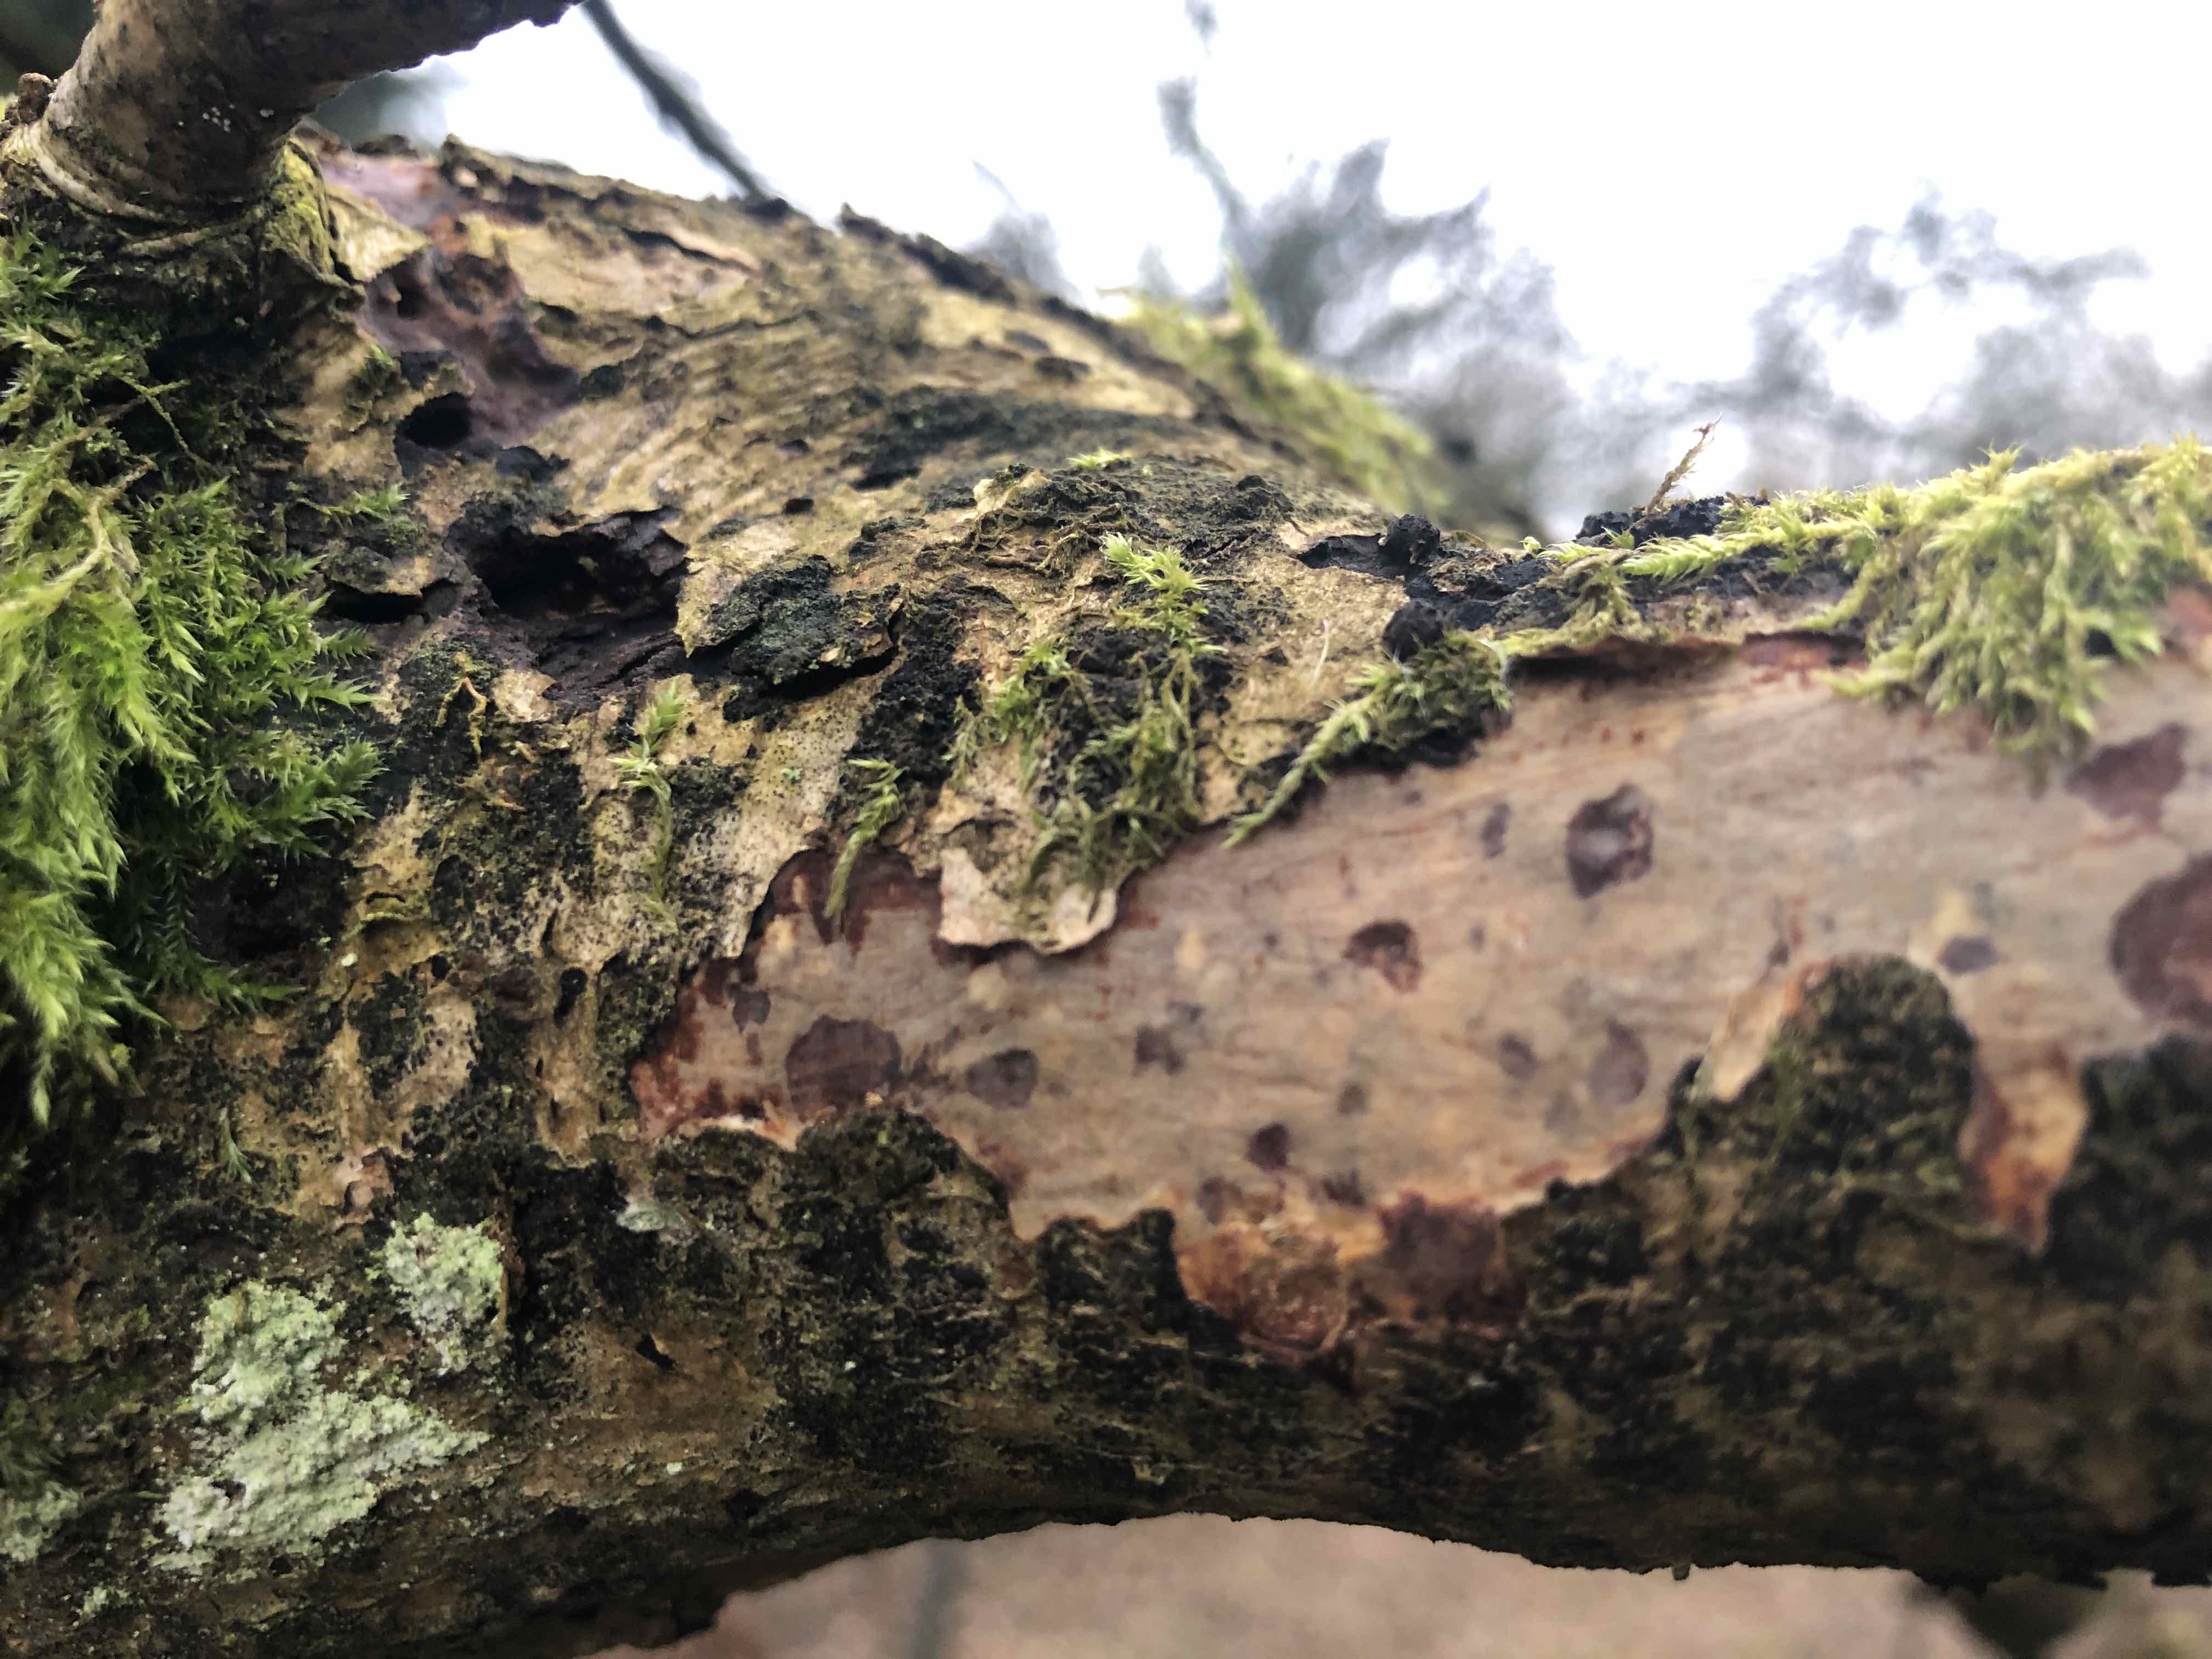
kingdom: Fungi
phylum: Basidiomycota
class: Agaricomycetes
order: Corticiales
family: Vuilleminiaceae
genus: Vuilleminia
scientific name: Vuilleminia comedens
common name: almindelig barksprænger
